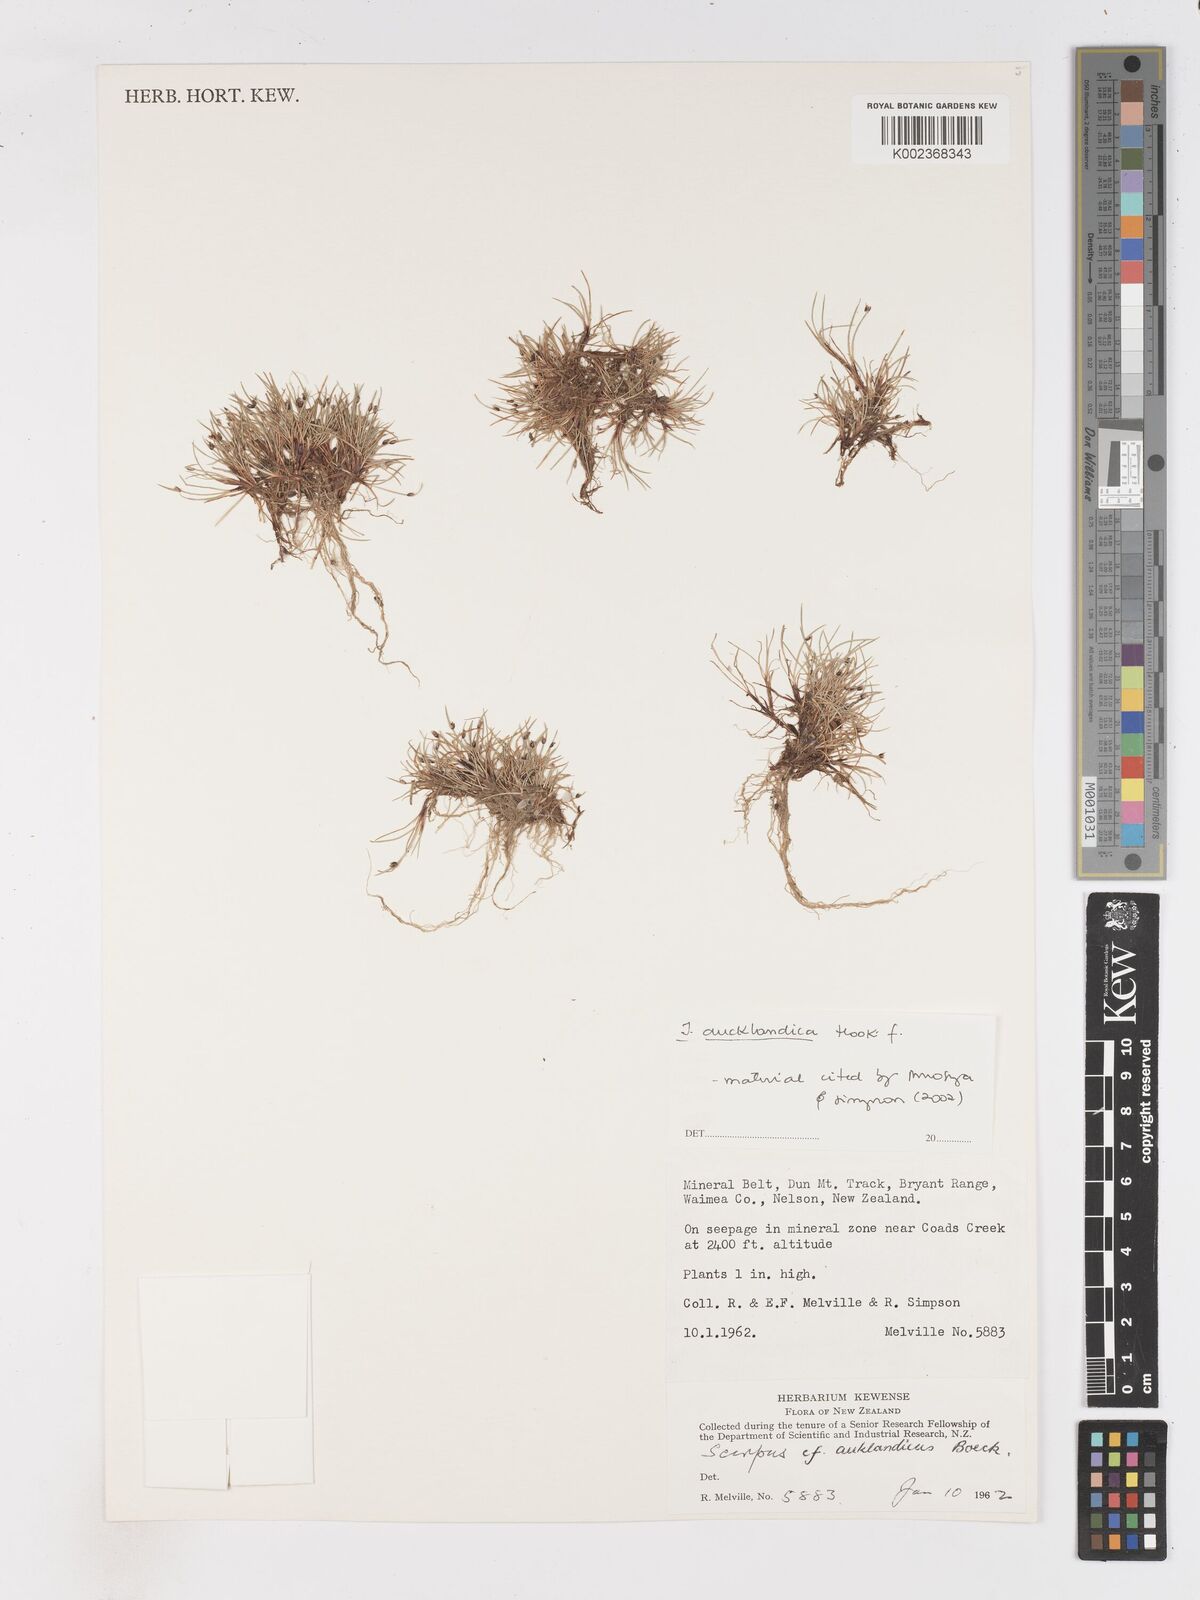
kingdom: Plantae
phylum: Tracheophyta
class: Liliopsida
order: Poales
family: Cyperaceae
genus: Isolepis
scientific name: Isolepis aucklandica
